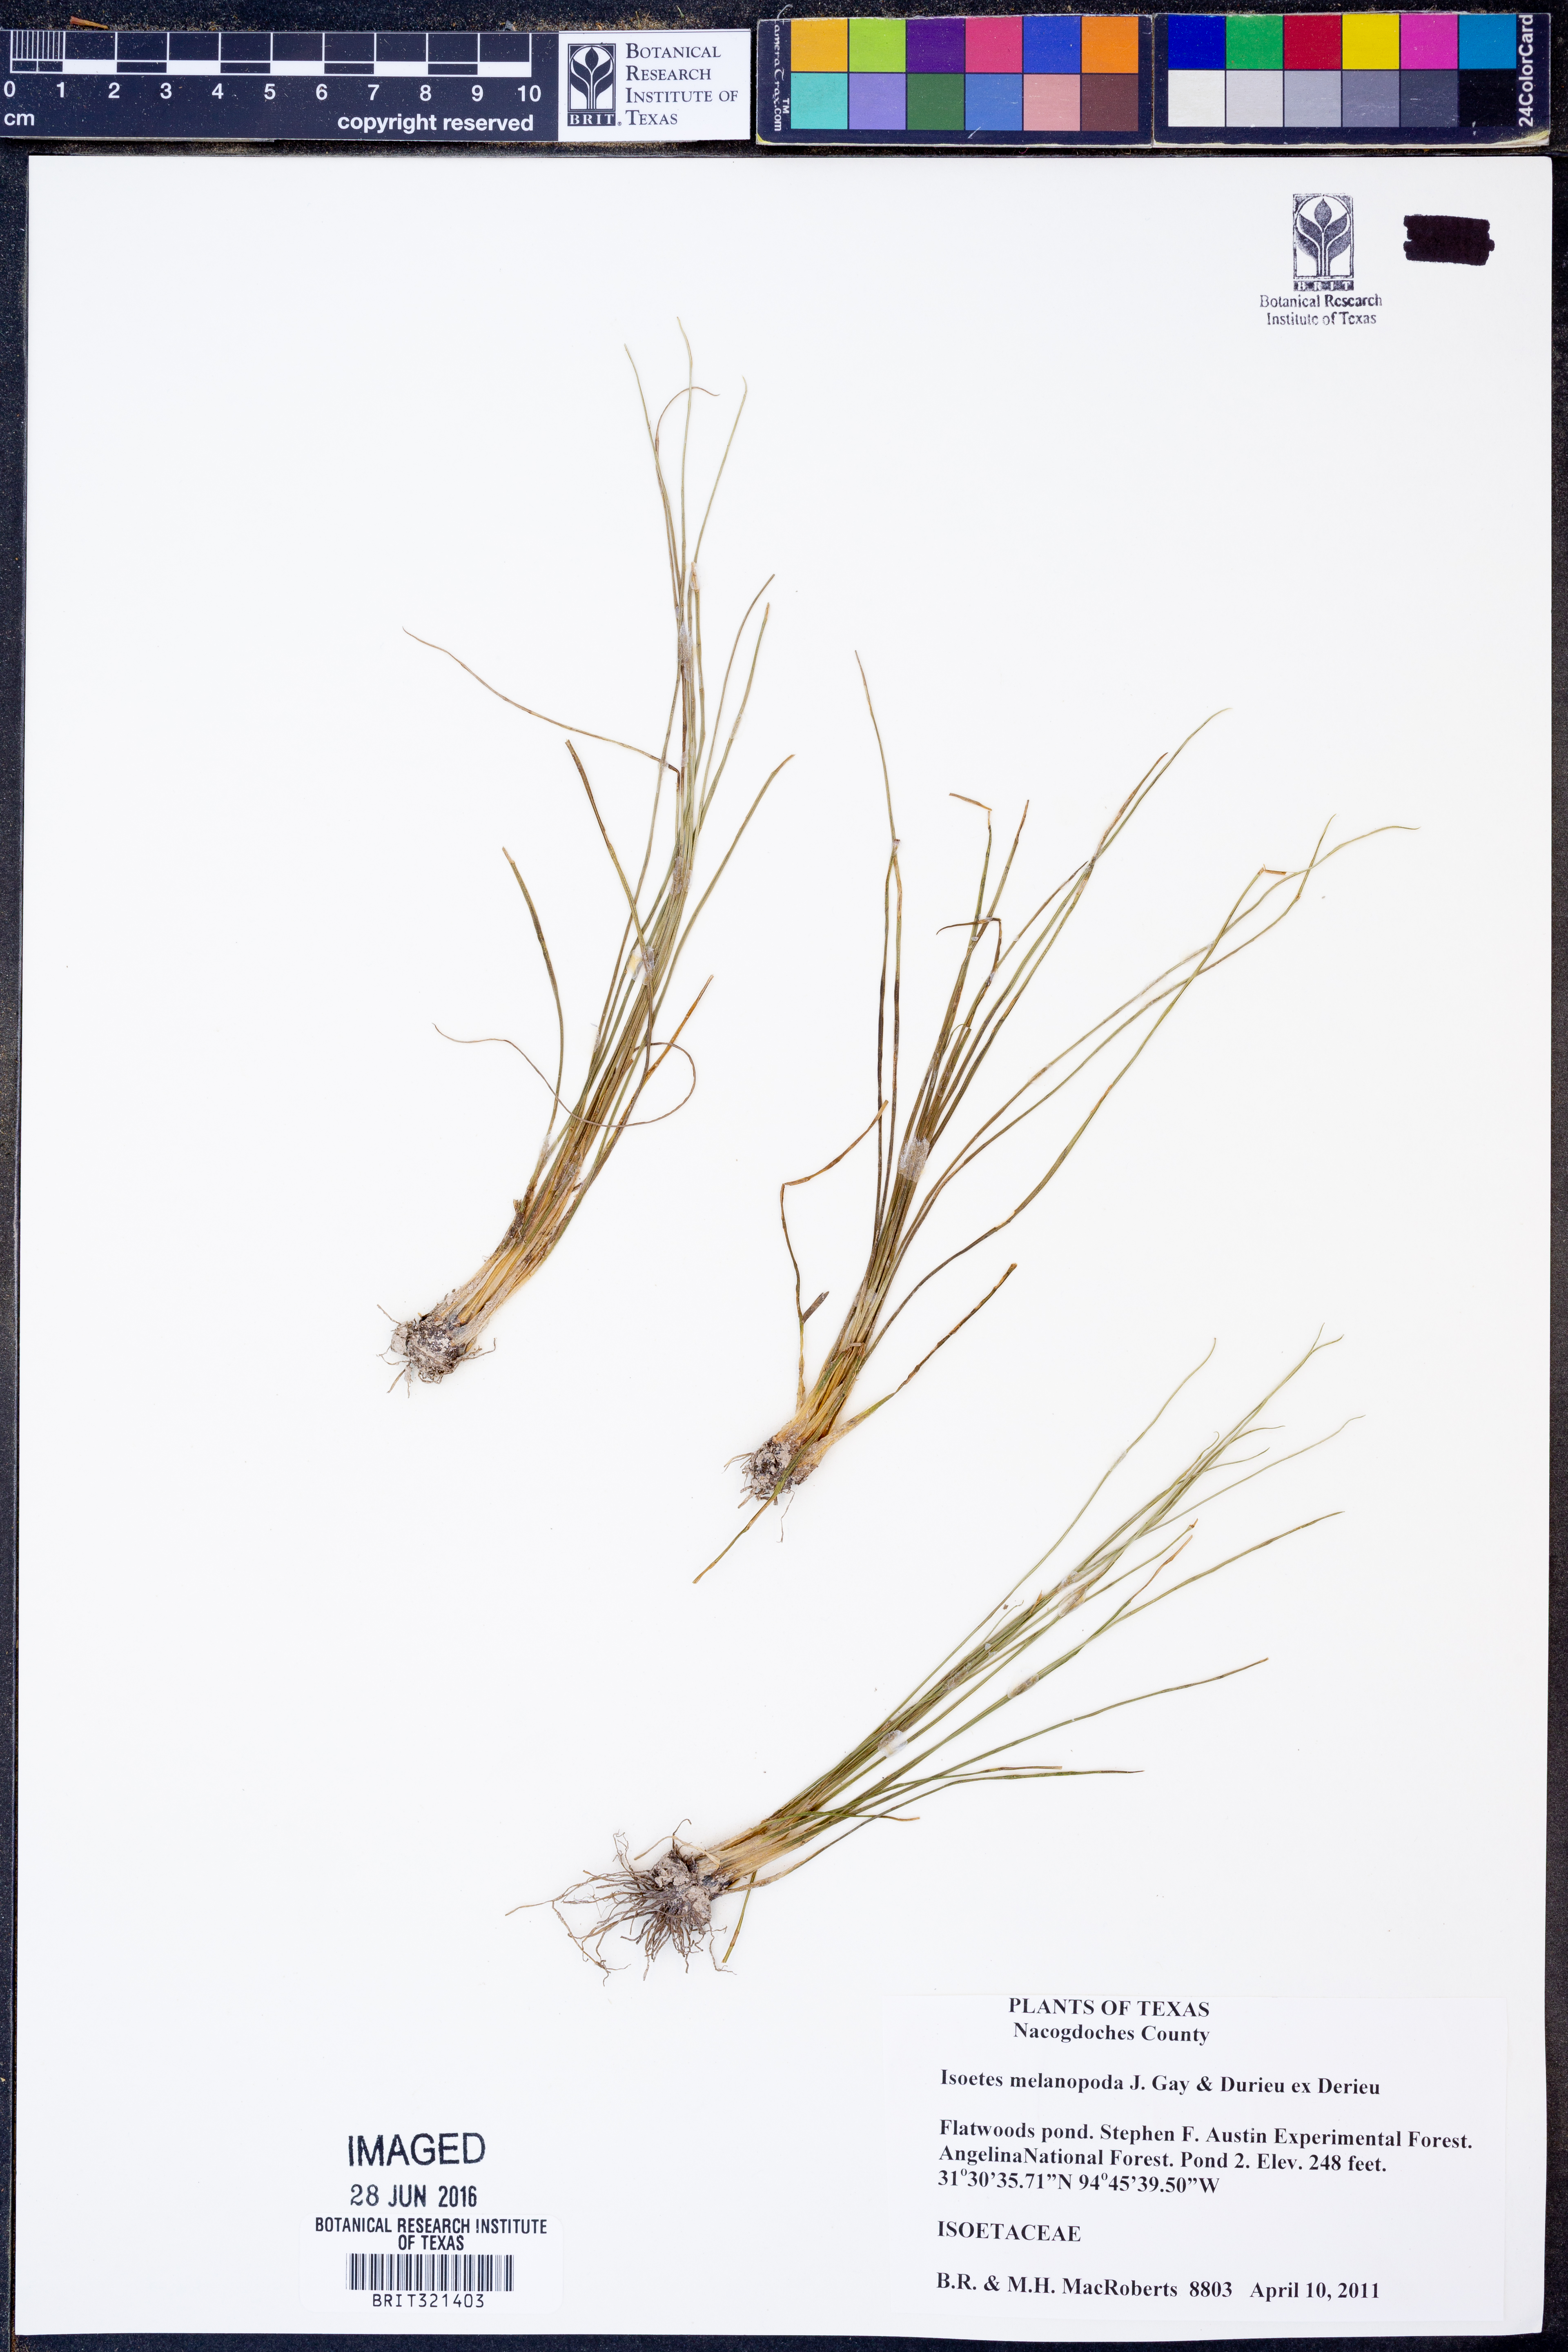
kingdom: Plantae
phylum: Tracheophyta
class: Lycopodiopsida
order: Isoetales
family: Isoetaceae
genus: Isoetes
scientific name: Isoetes melanopoda
